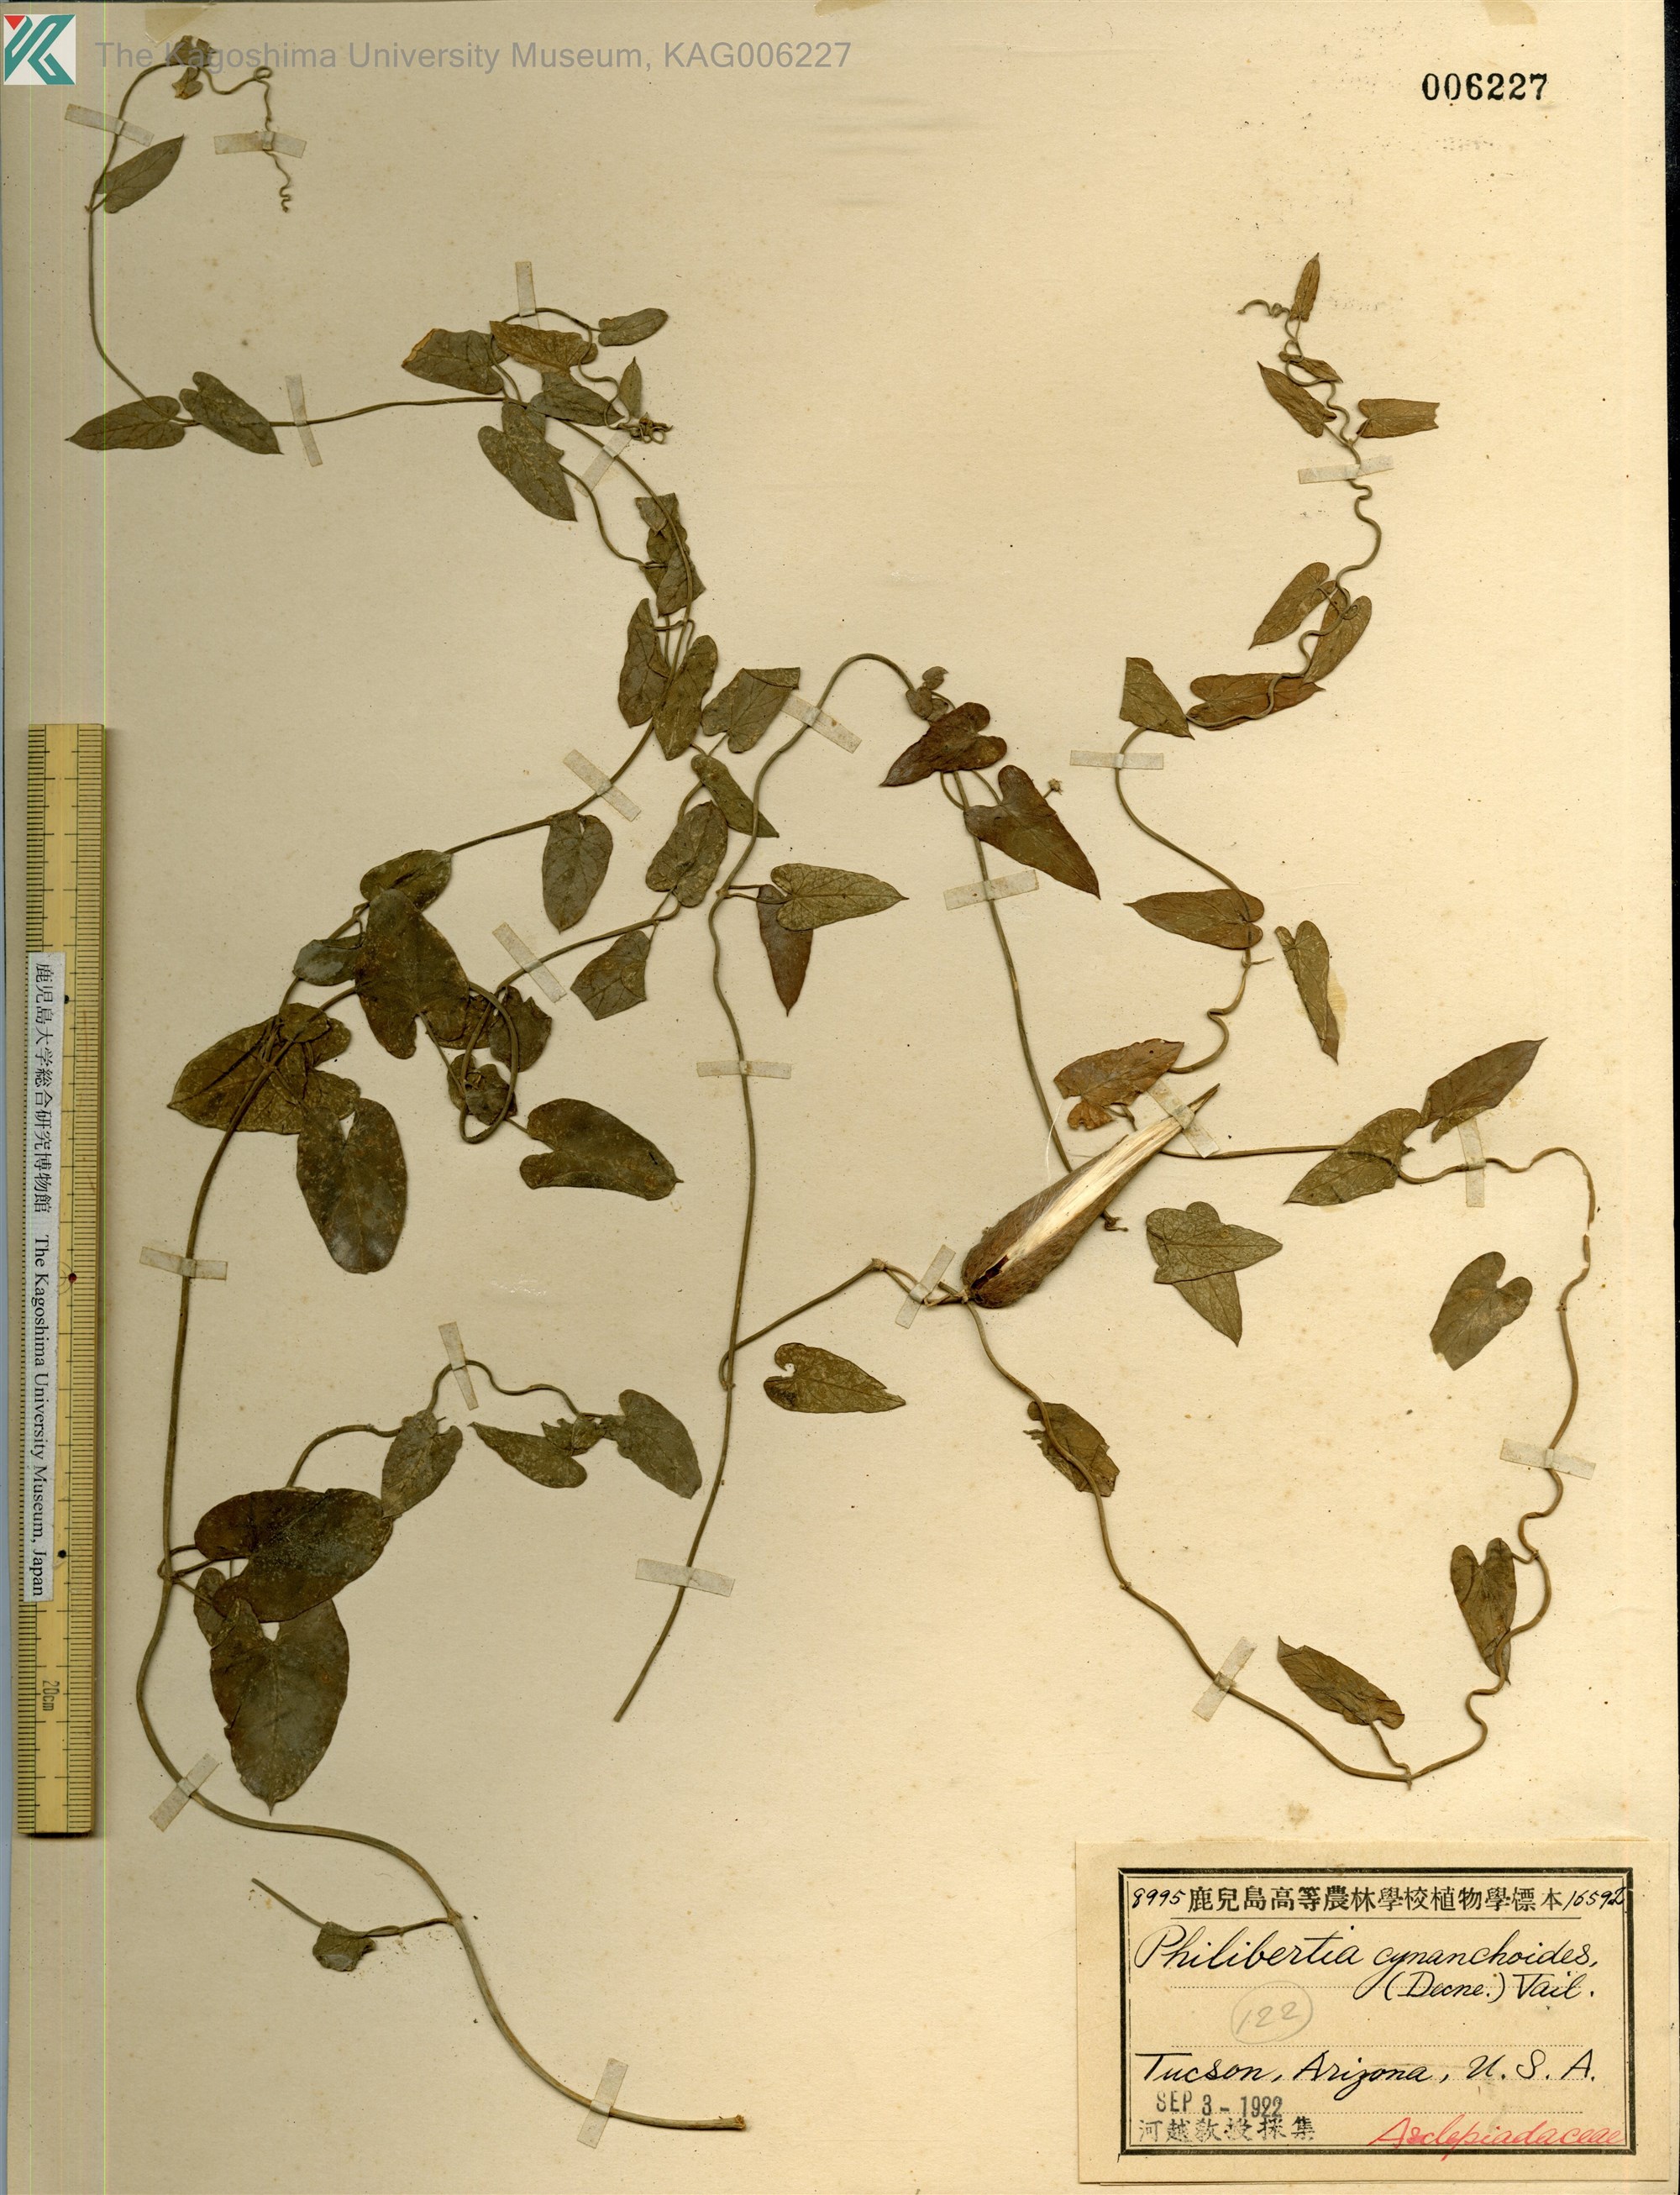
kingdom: Plantae
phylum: Tracheophyta
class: Magnoliopsida
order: Gentianales
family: Apocynaceae
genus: Funastrum
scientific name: Funastrum cynanchoides
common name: Climbing-milkweed
